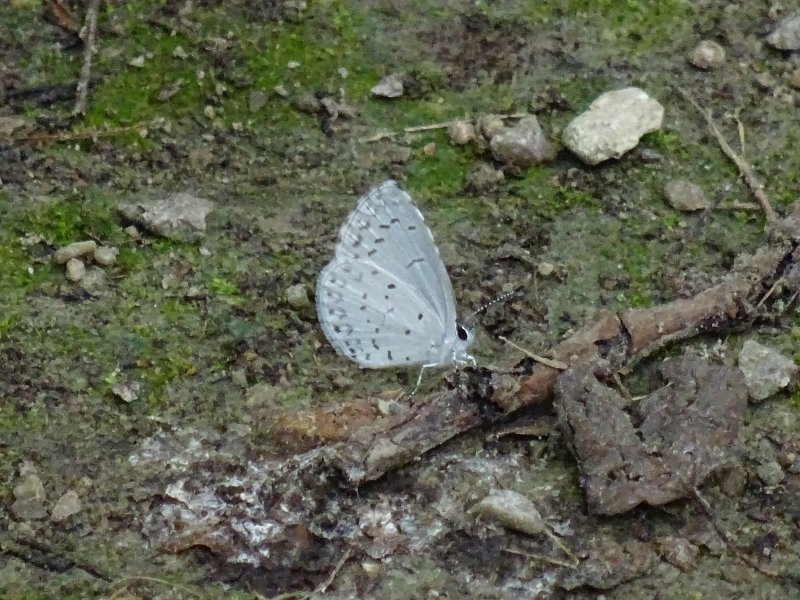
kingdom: Animalia
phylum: Arthropoda
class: Insecta
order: Lepidoptera
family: Lycaenidae
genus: Celastrina
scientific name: Celastrina
